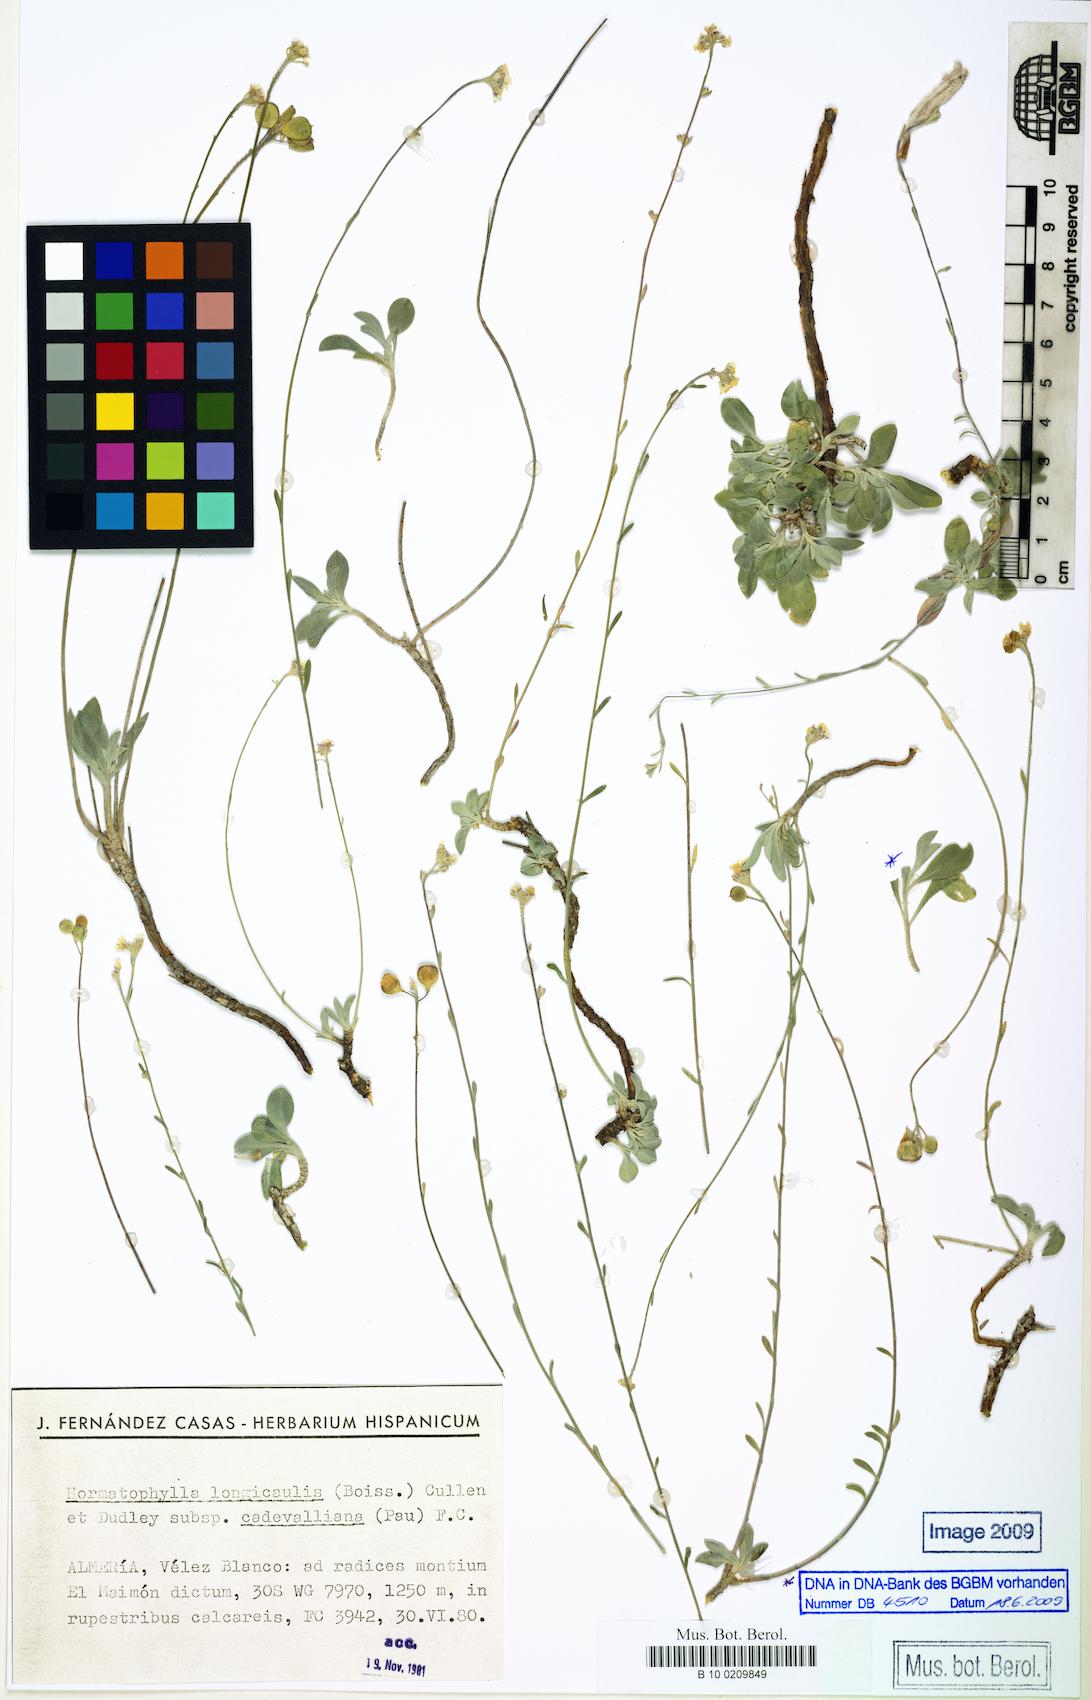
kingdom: Plantae
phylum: Tracheophyta
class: Magnoliopsida
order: Brassicales
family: Brassicaceae
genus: Hormathophylla
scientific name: Hormathophylla cadevalliana
